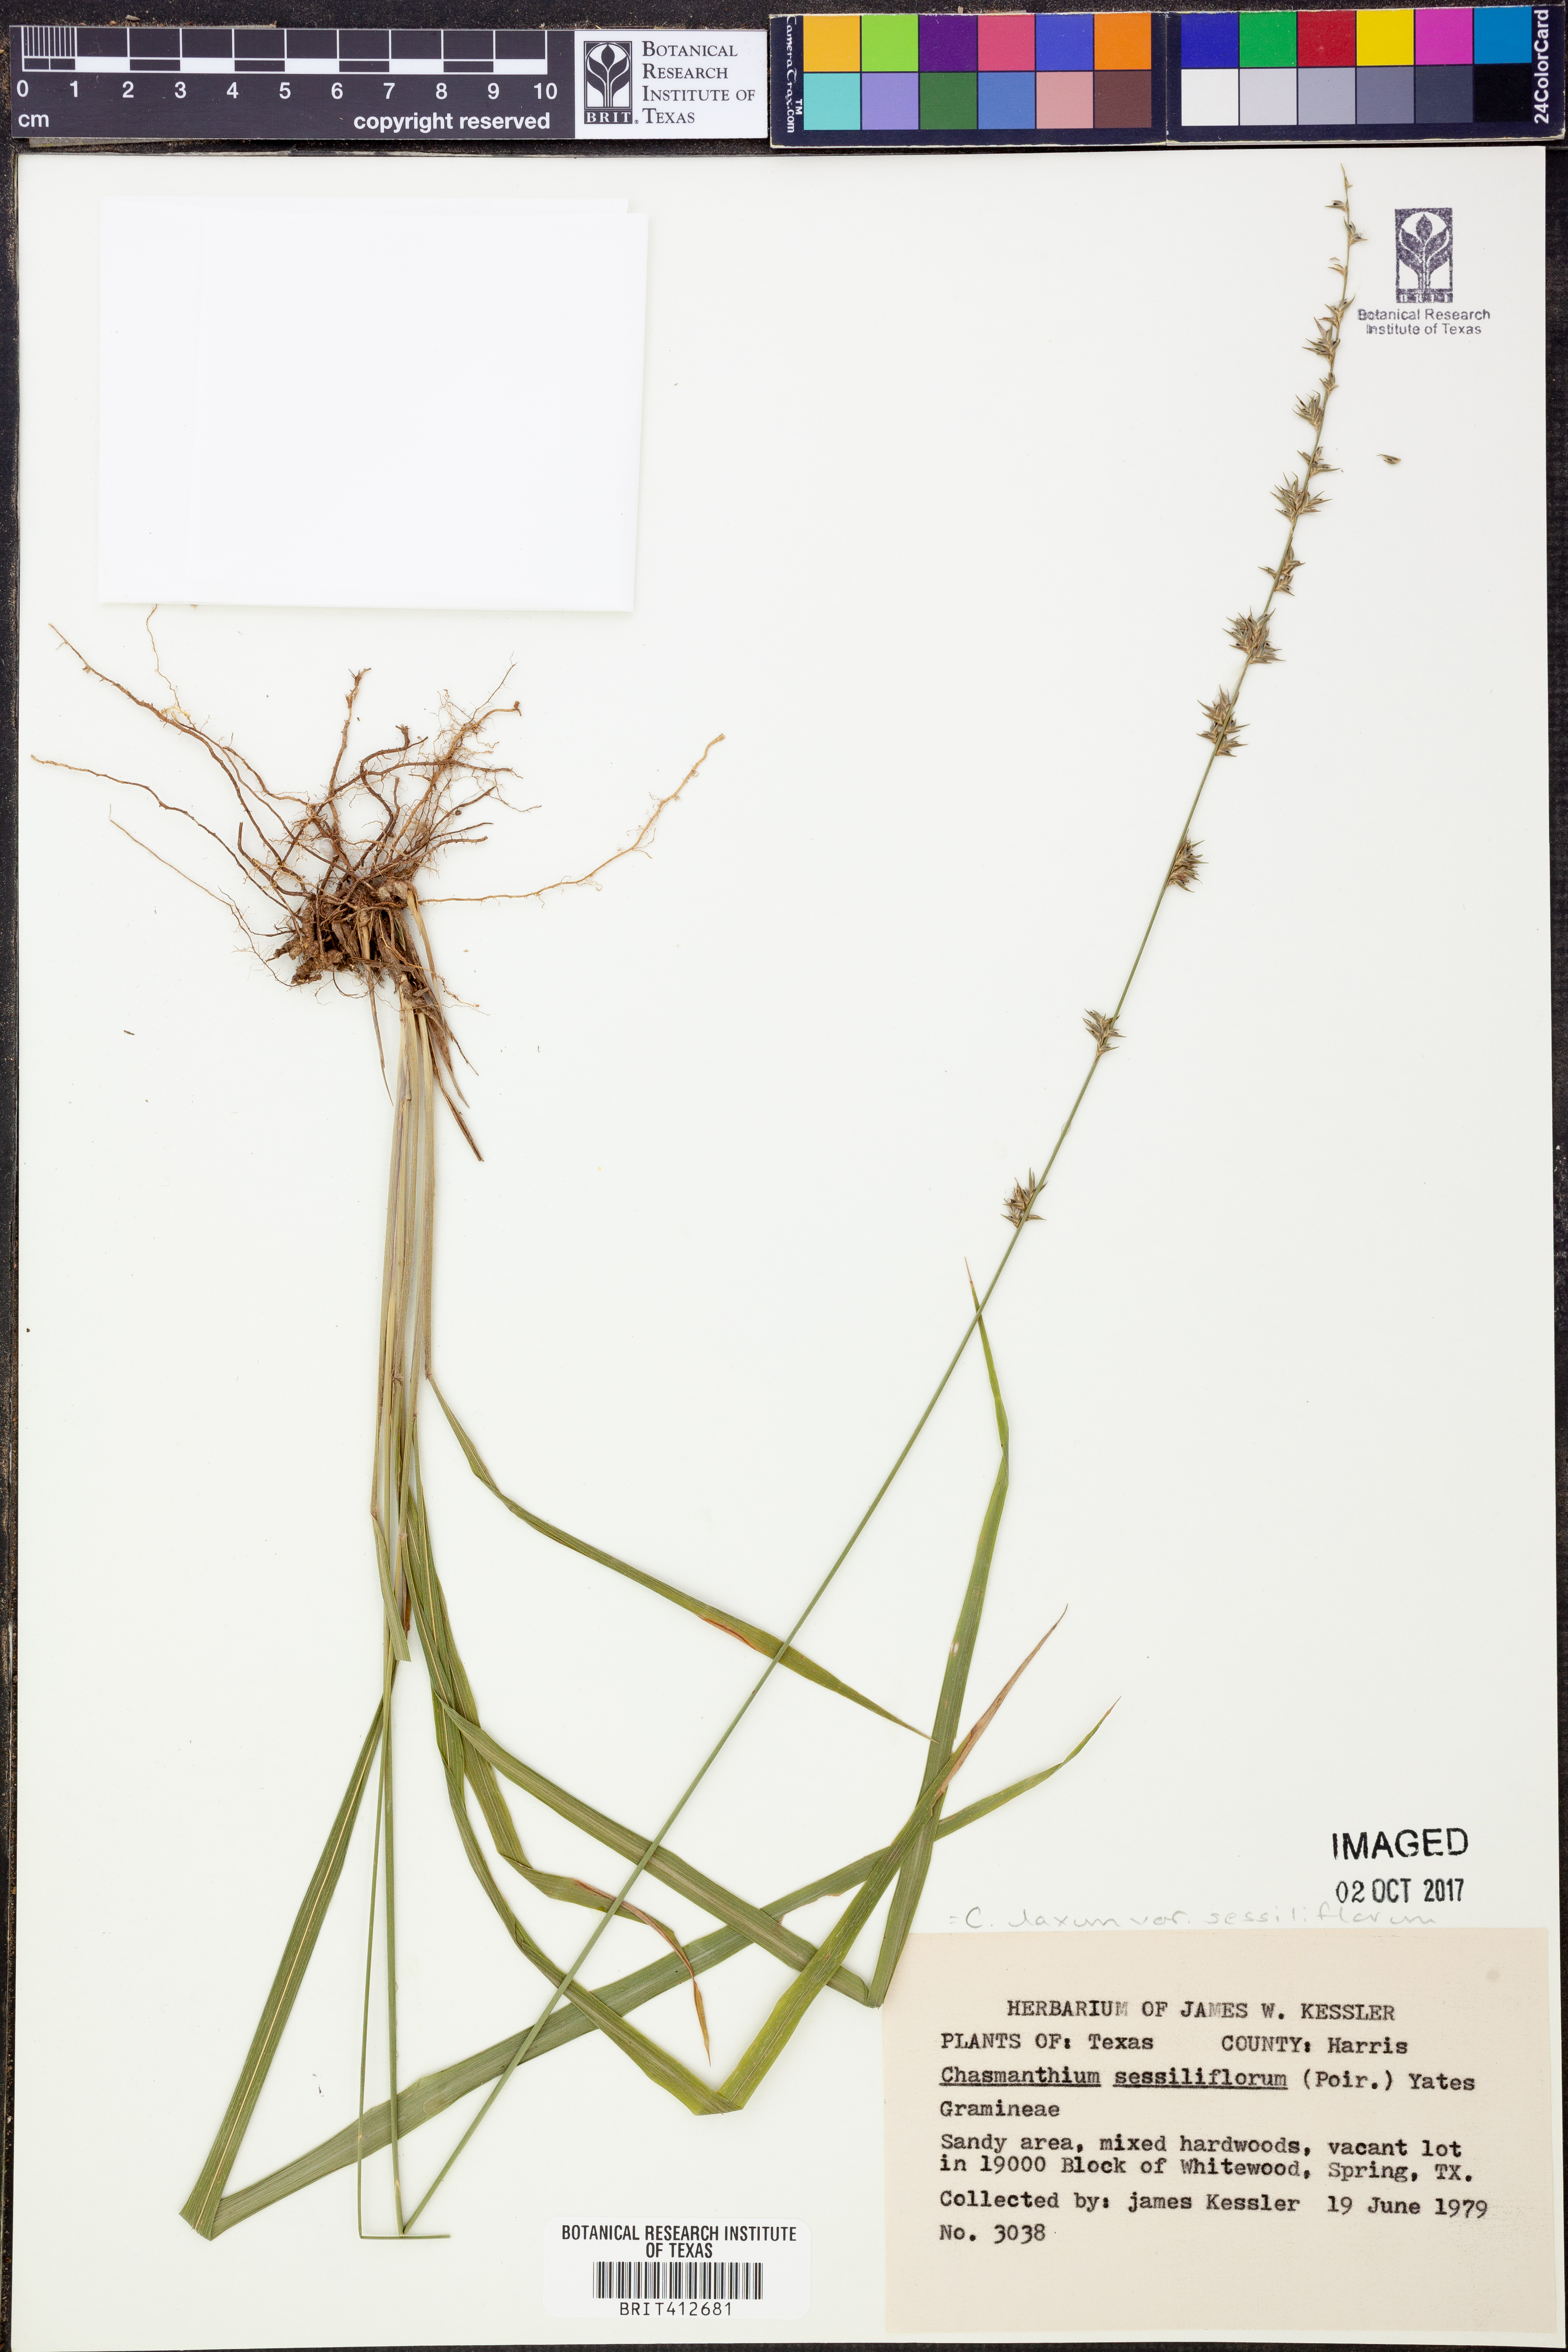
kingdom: Plantae
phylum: Tracheophyta
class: Liliopsida
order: Poales
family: Poaceae
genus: Chasmanthium
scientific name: Chasmanthium laxum
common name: Slender chasmanthium
